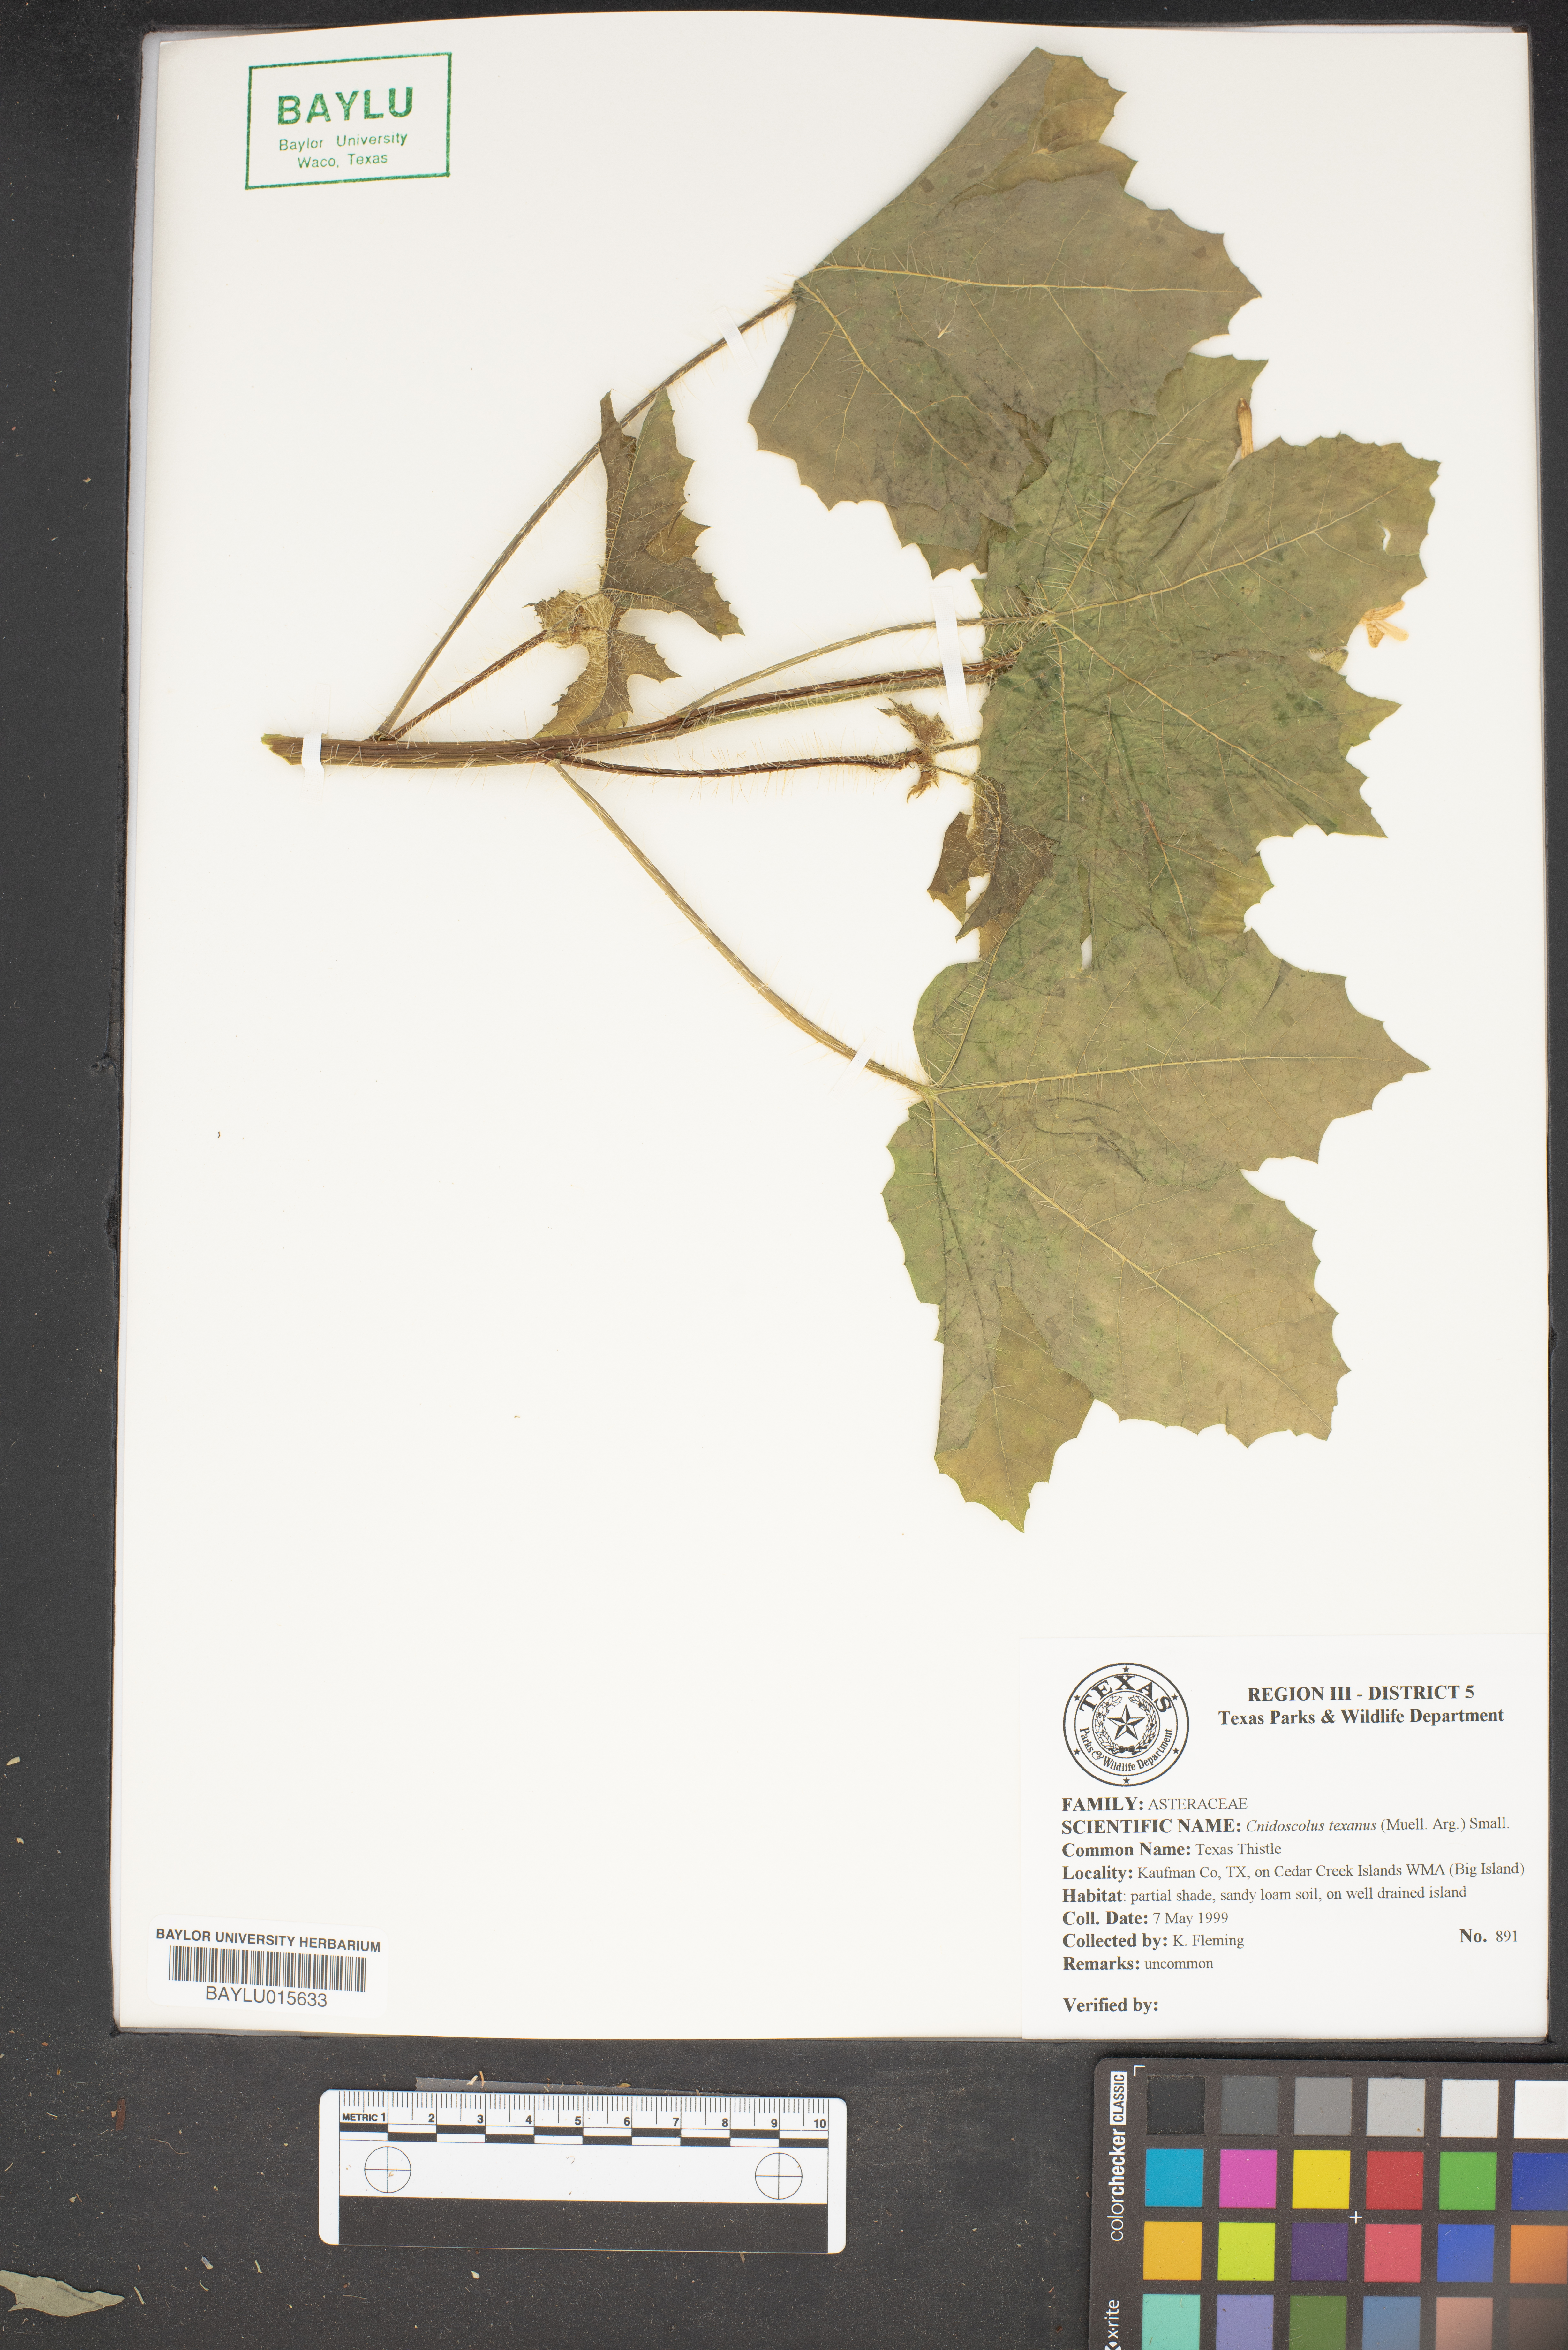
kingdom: Plantae
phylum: Tracheophyta
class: Magnoliopsida
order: Malpighiales
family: Euphorbiaceae
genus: Cnidoscolus
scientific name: Cnidoscolus texanus
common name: Texas bull-nettle
